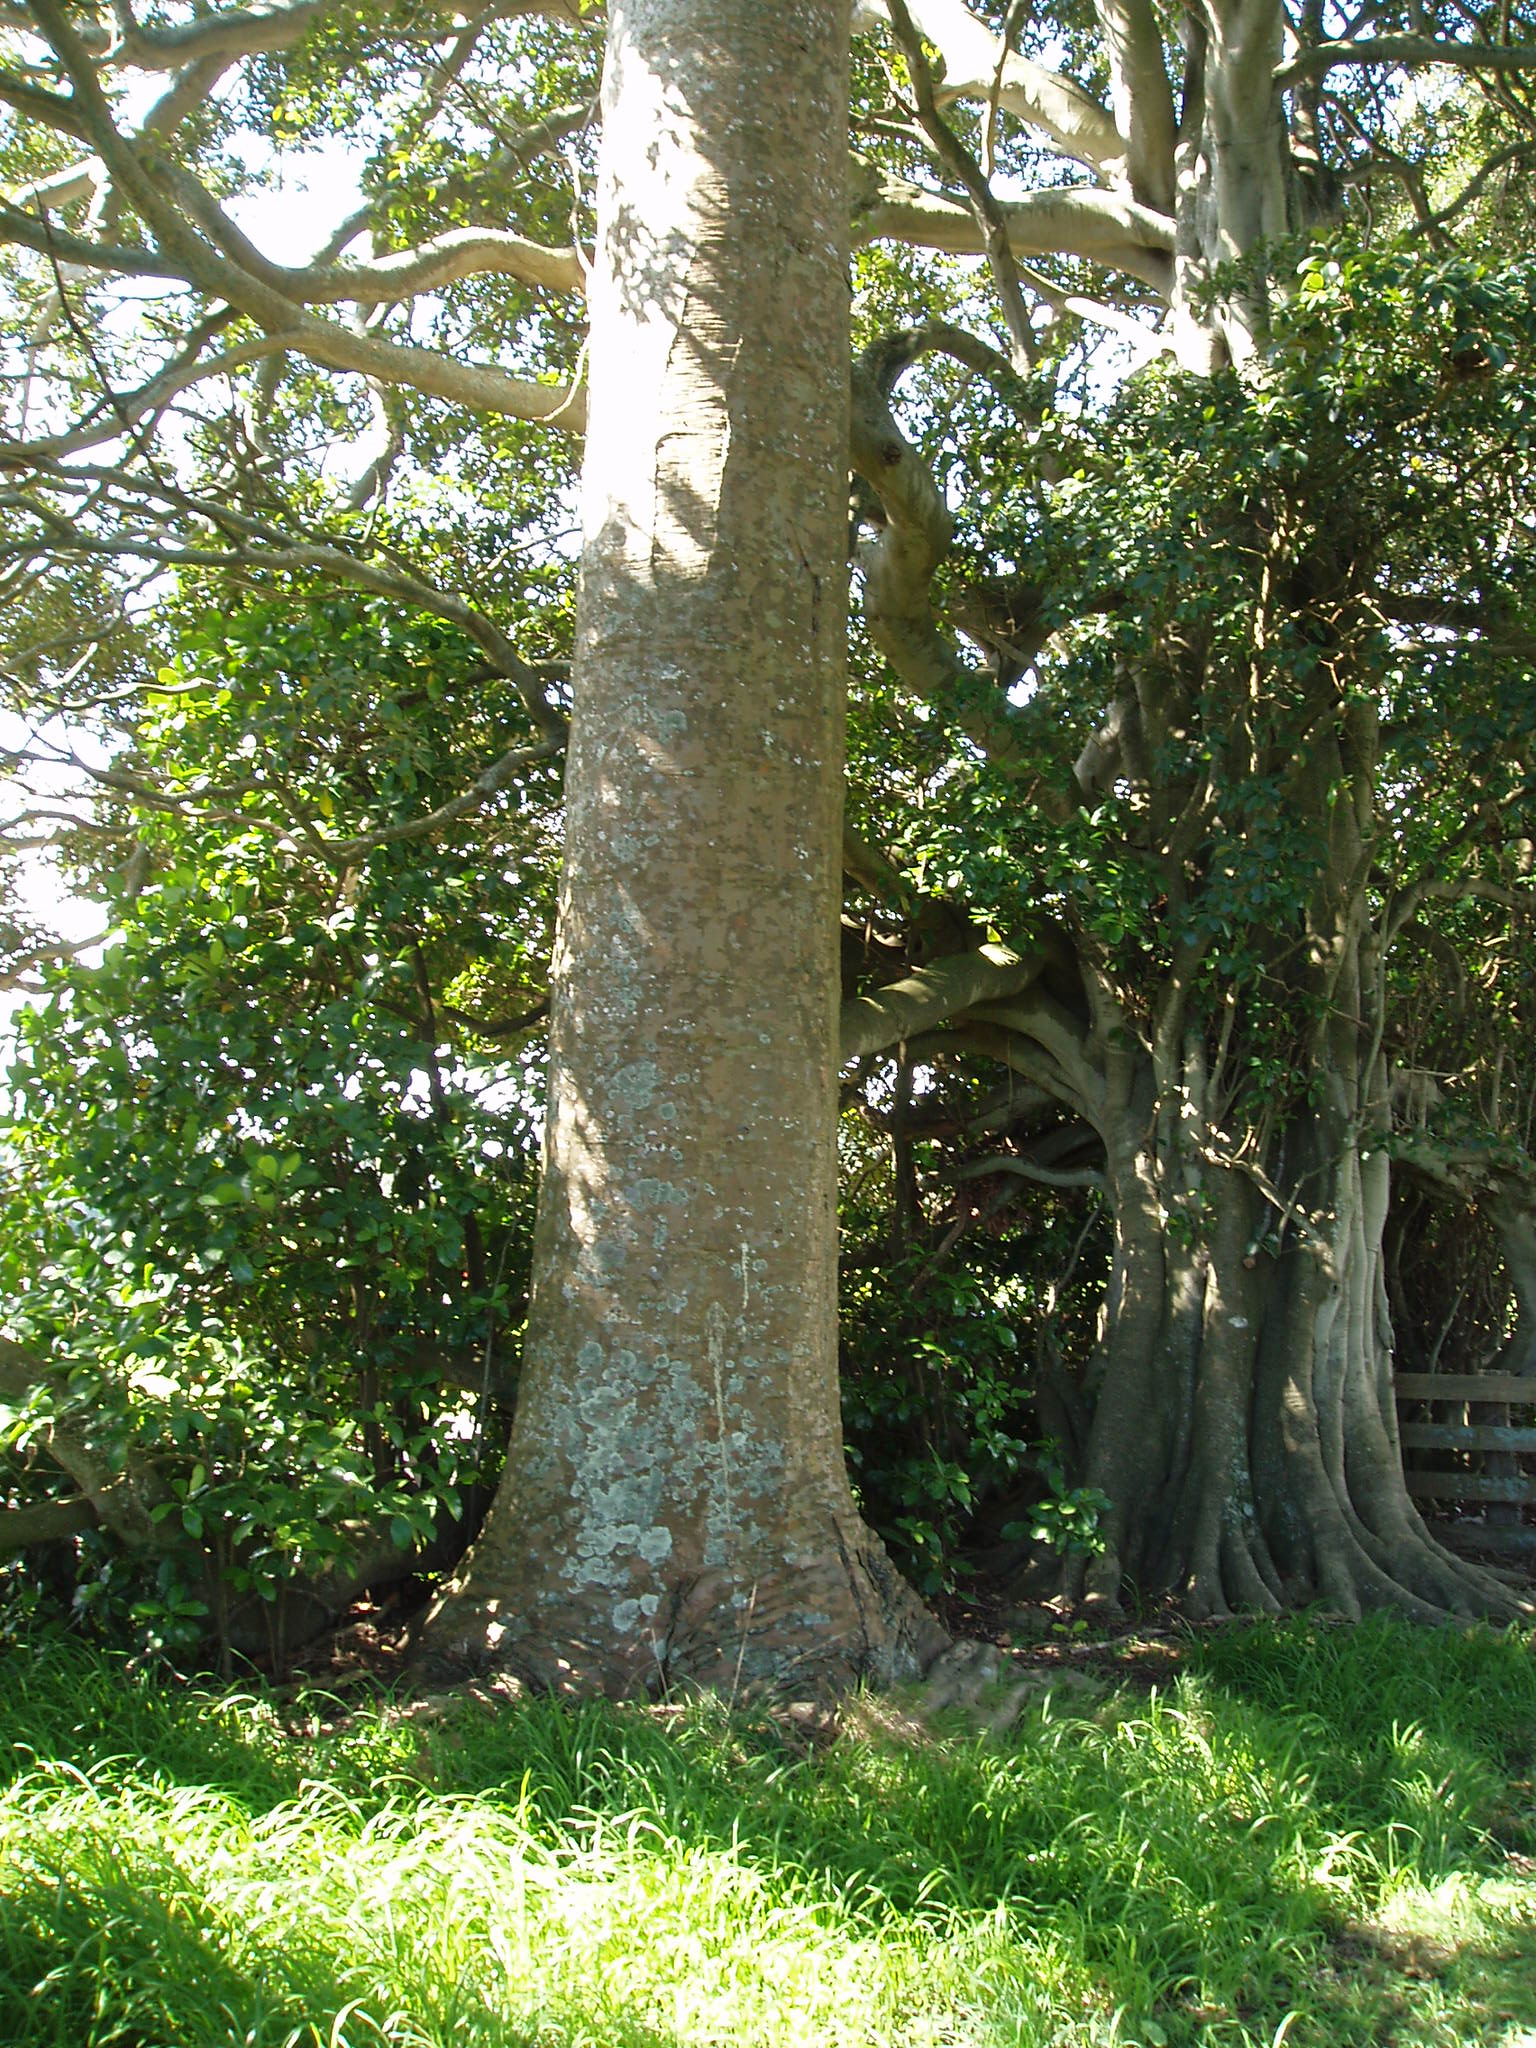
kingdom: Plantae
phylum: Tracheophyta
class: Pinopsida
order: Pinales
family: Araucariaceae
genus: Agathis
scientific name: Agathis robusta
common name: Australian-kauri
